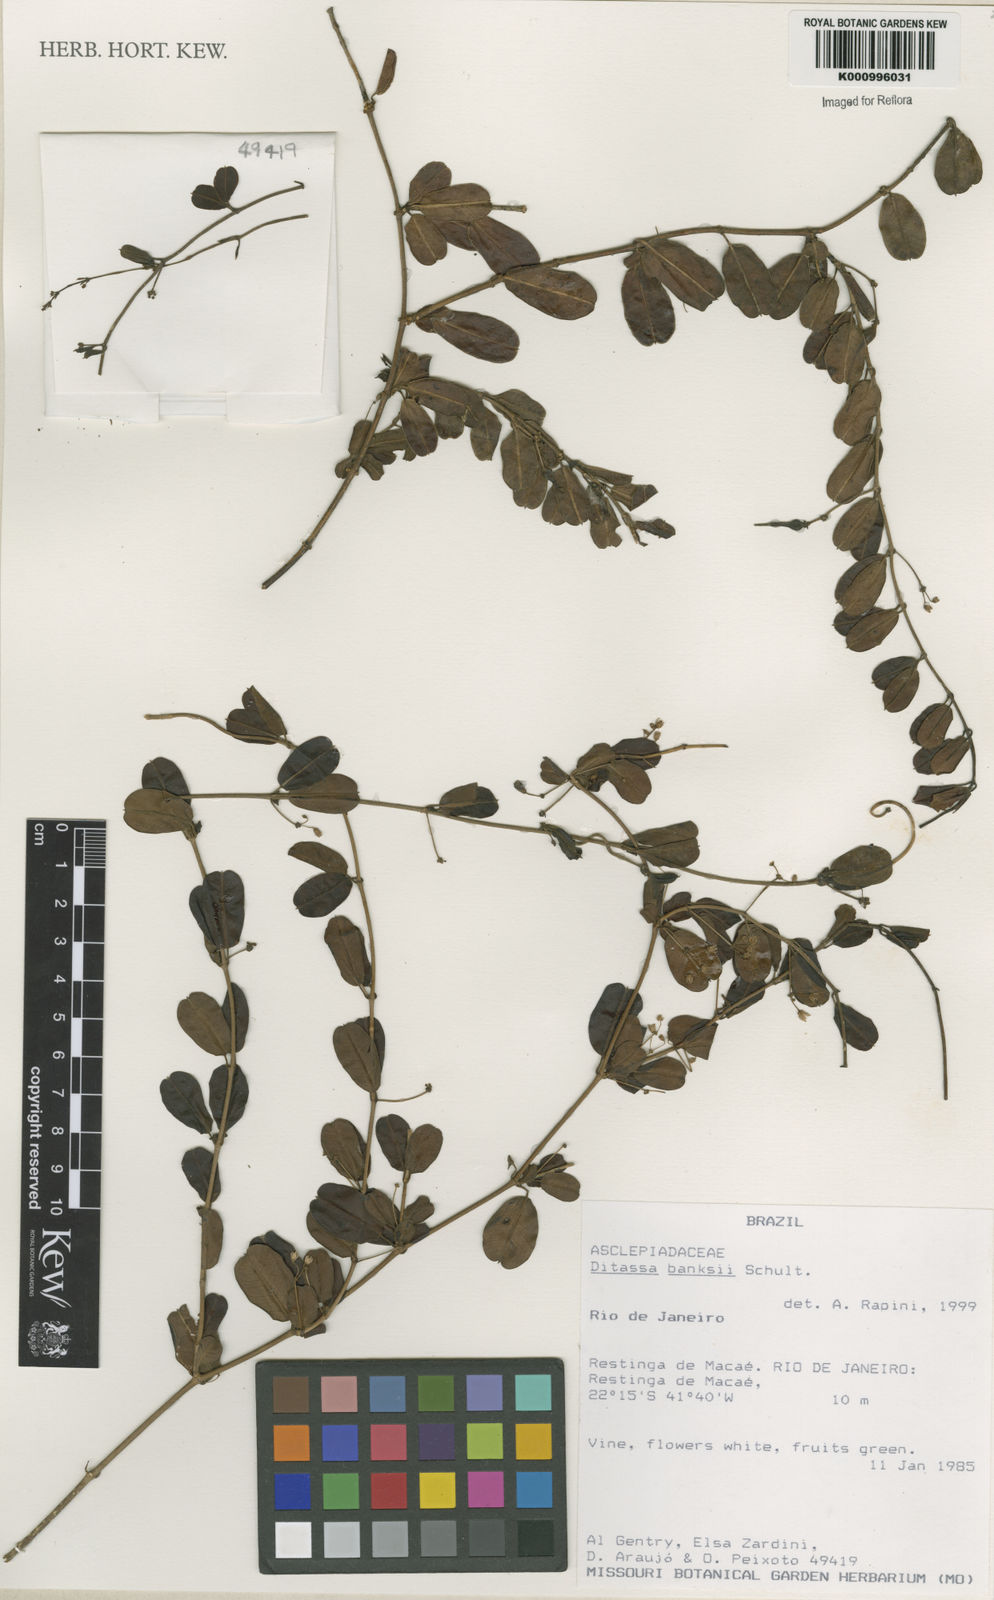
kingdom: Plantae
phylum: Tracheophyta
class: Magnoliopsida
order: Gentianales
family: Apocynaceae
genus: Ditassa
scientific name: Ditassa banksii
